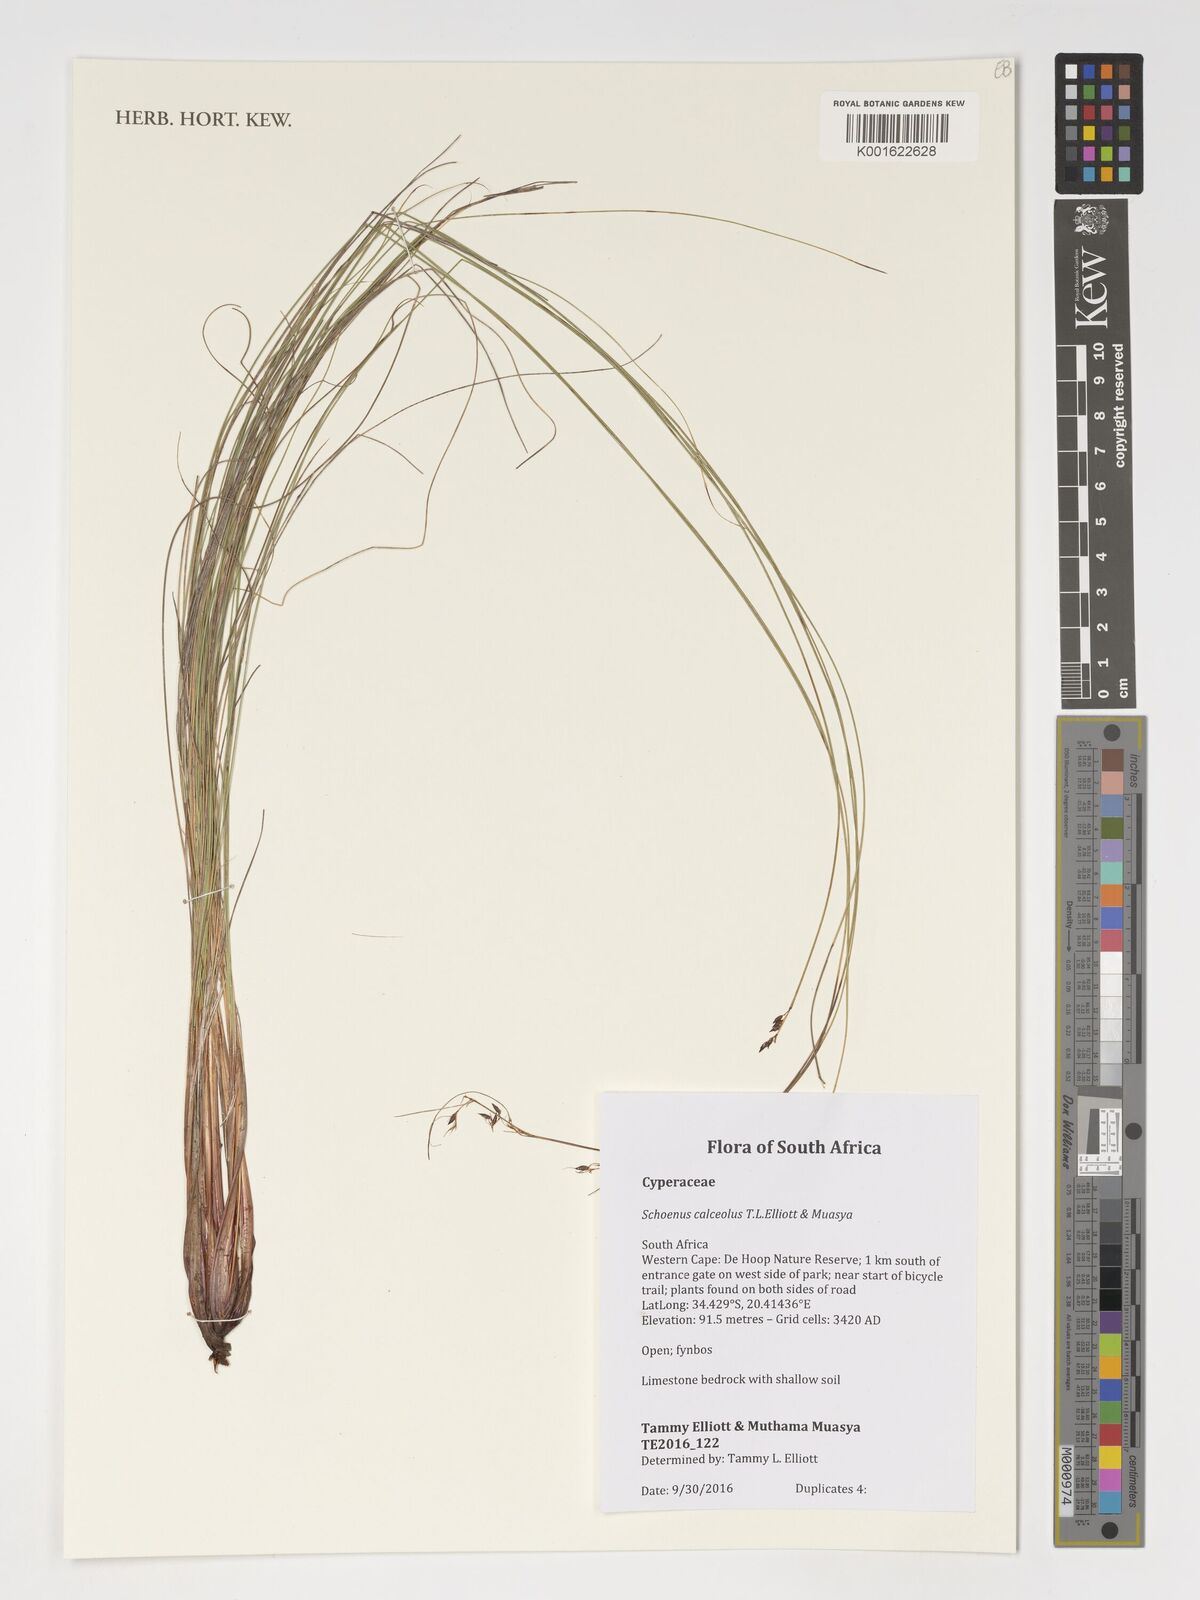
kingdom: Plantae
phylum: Tracheophyta
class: Liliopsida
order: Poales
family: Cyperaceae
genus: Schoenus
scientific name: Schoenus calceolus
